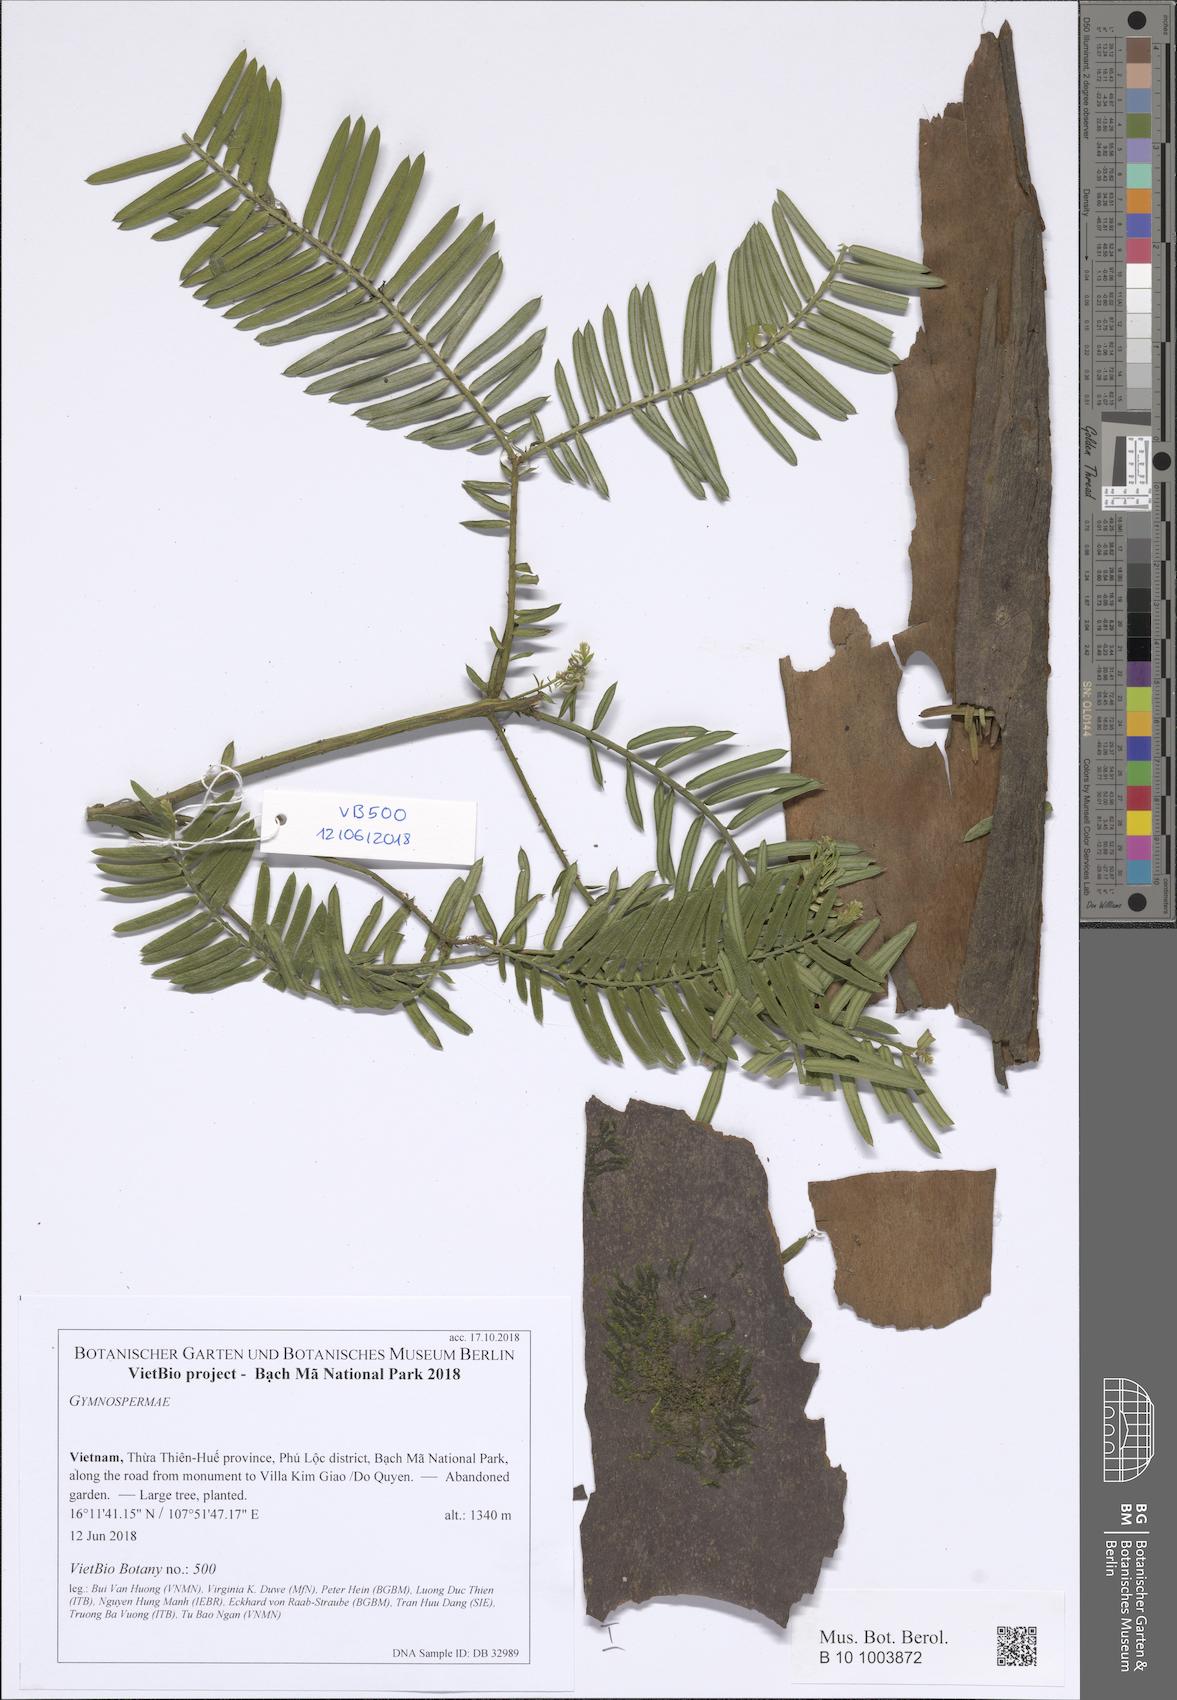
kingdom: Plantae
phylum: Tracheophyta
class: Pinopsida
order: Pinales
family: Cephalotaxaceae
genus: Cephalotaxus
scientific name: Cephalotaxus mannii
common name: Mann's yew plum
